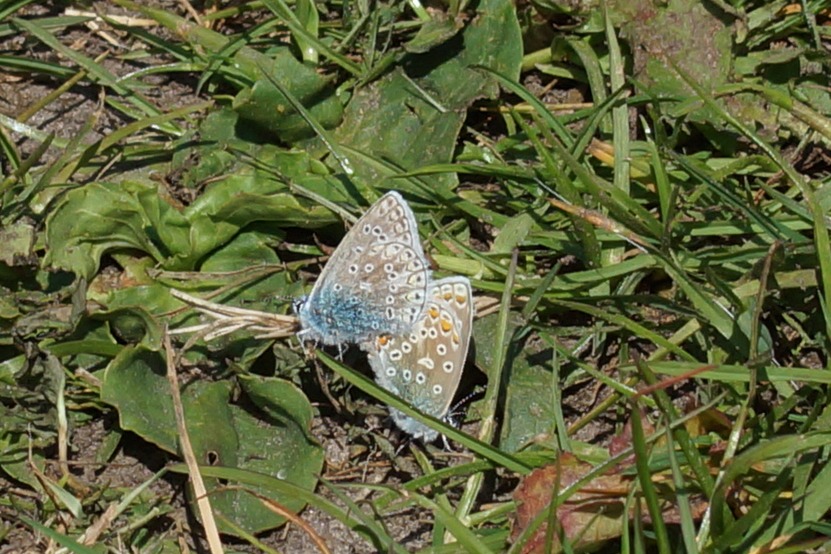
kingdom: Animalia
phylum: Arthropoda
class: Insecta
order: Lepidoptera
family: Lycaenidae
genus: Polyommatus
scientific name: Polyommatus icarus
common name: Almindelig blåfugl
